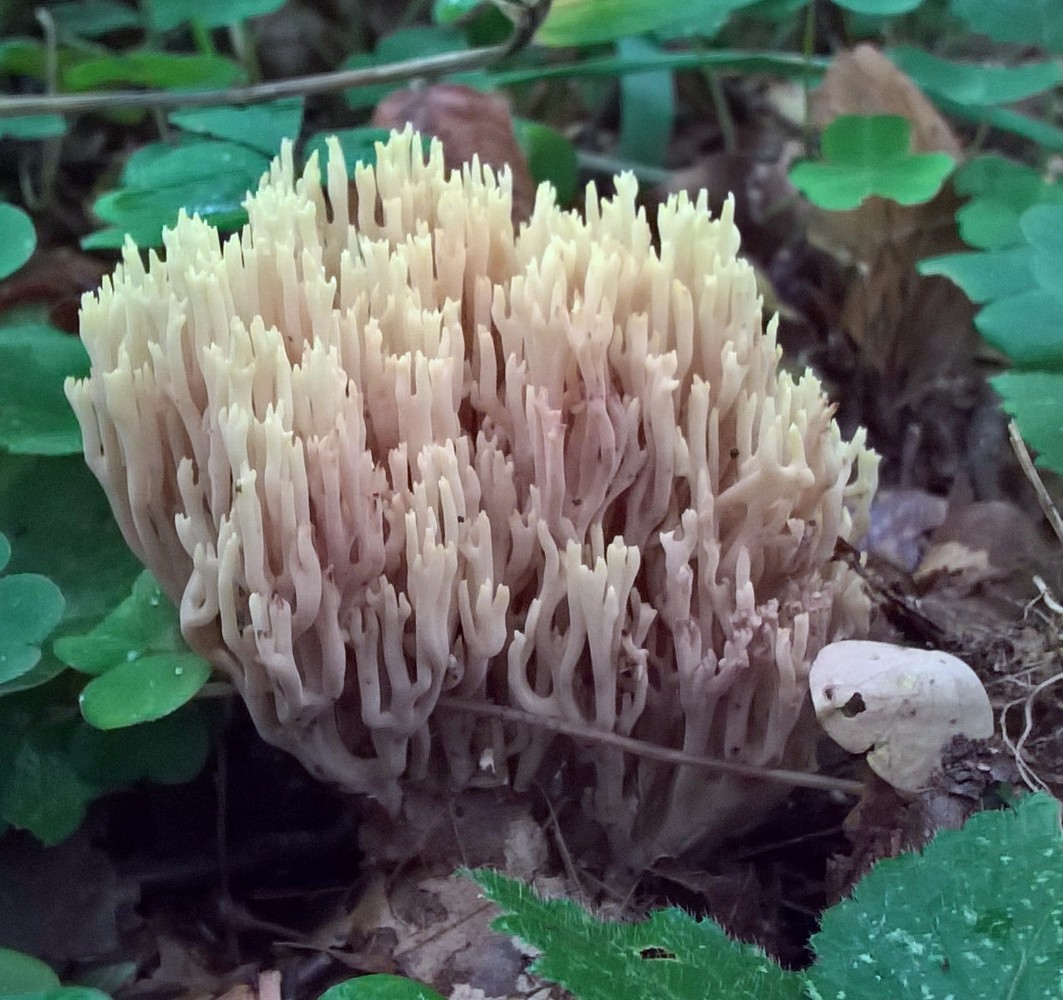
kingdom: Fungi
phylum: Basidiomycota
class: Agaricomycetes
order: Gomphales
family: Gomphaceae
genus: Ramaria
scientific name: Ramaria stricta
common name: rank koralsvamp
